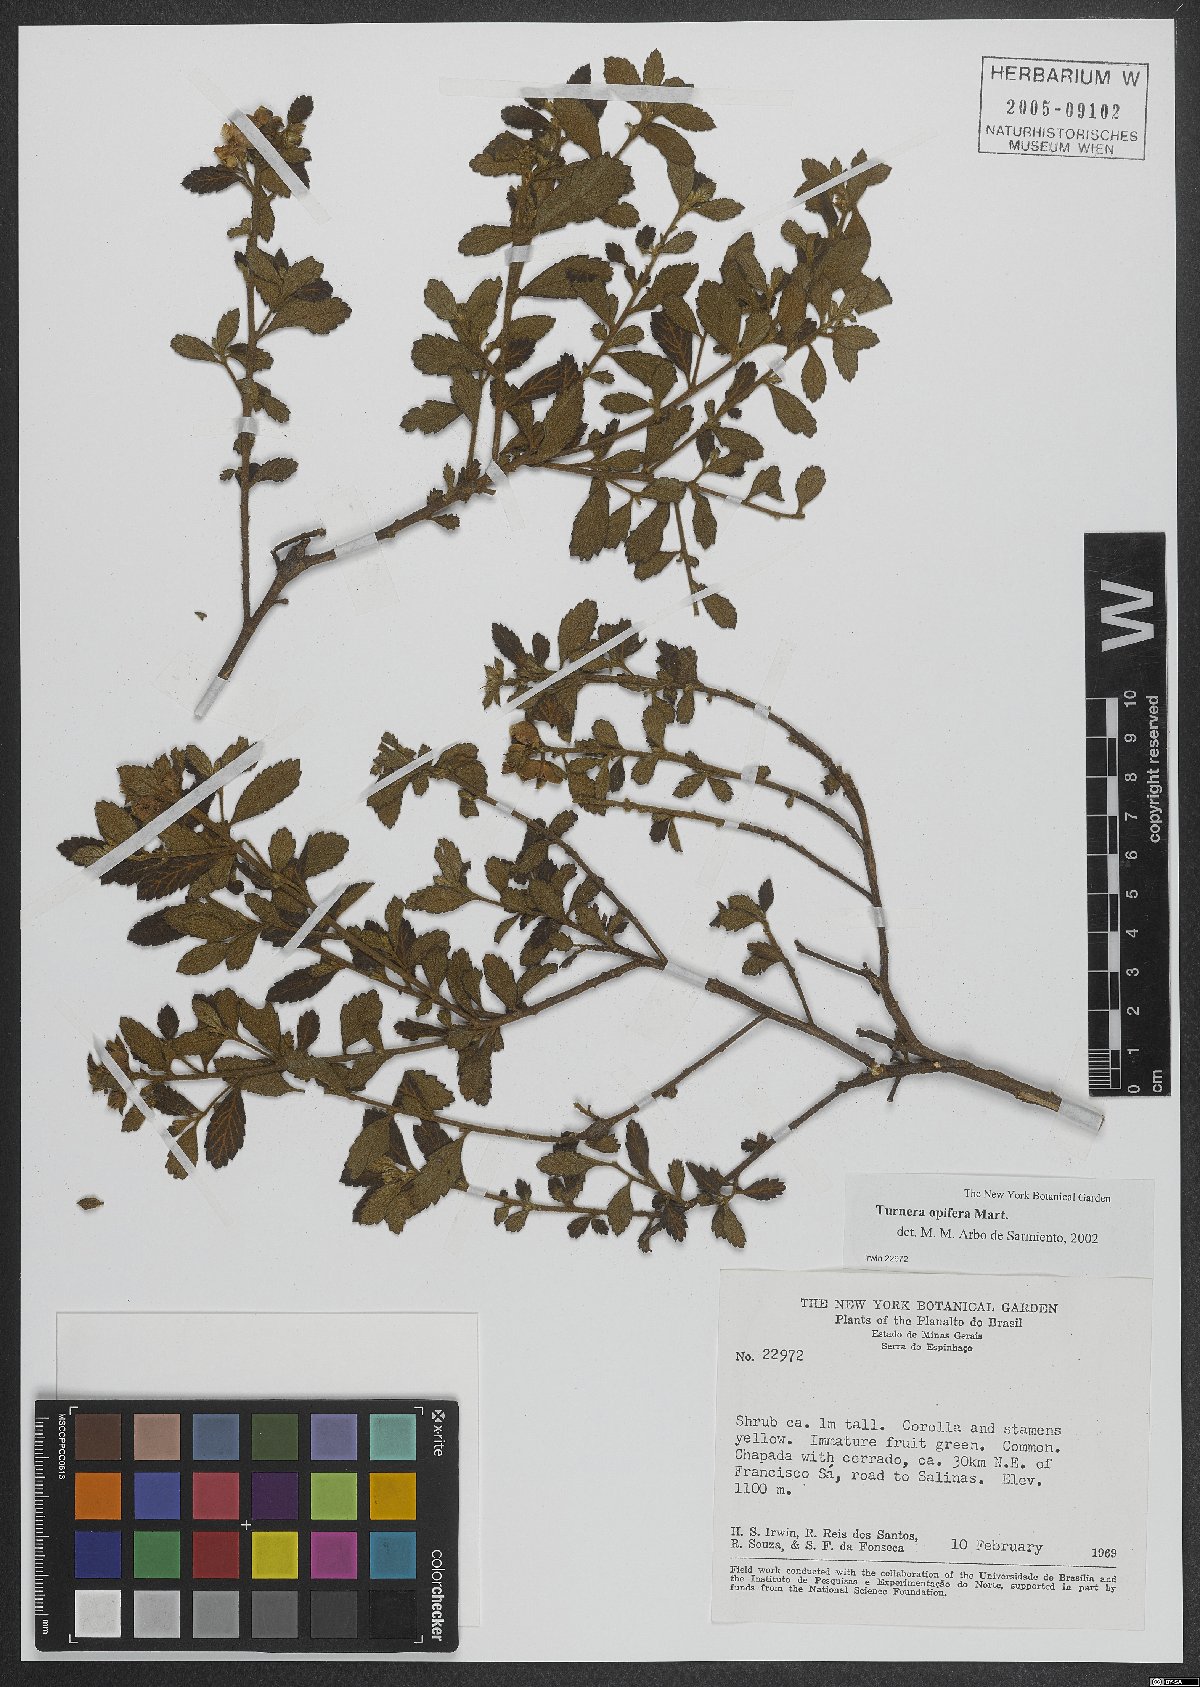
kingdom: Plantae
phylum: Tracheophyta
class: Magnoliopsida
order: Malpighiales
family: Turneraceae
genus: Turnera
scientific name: Turnera opifera
